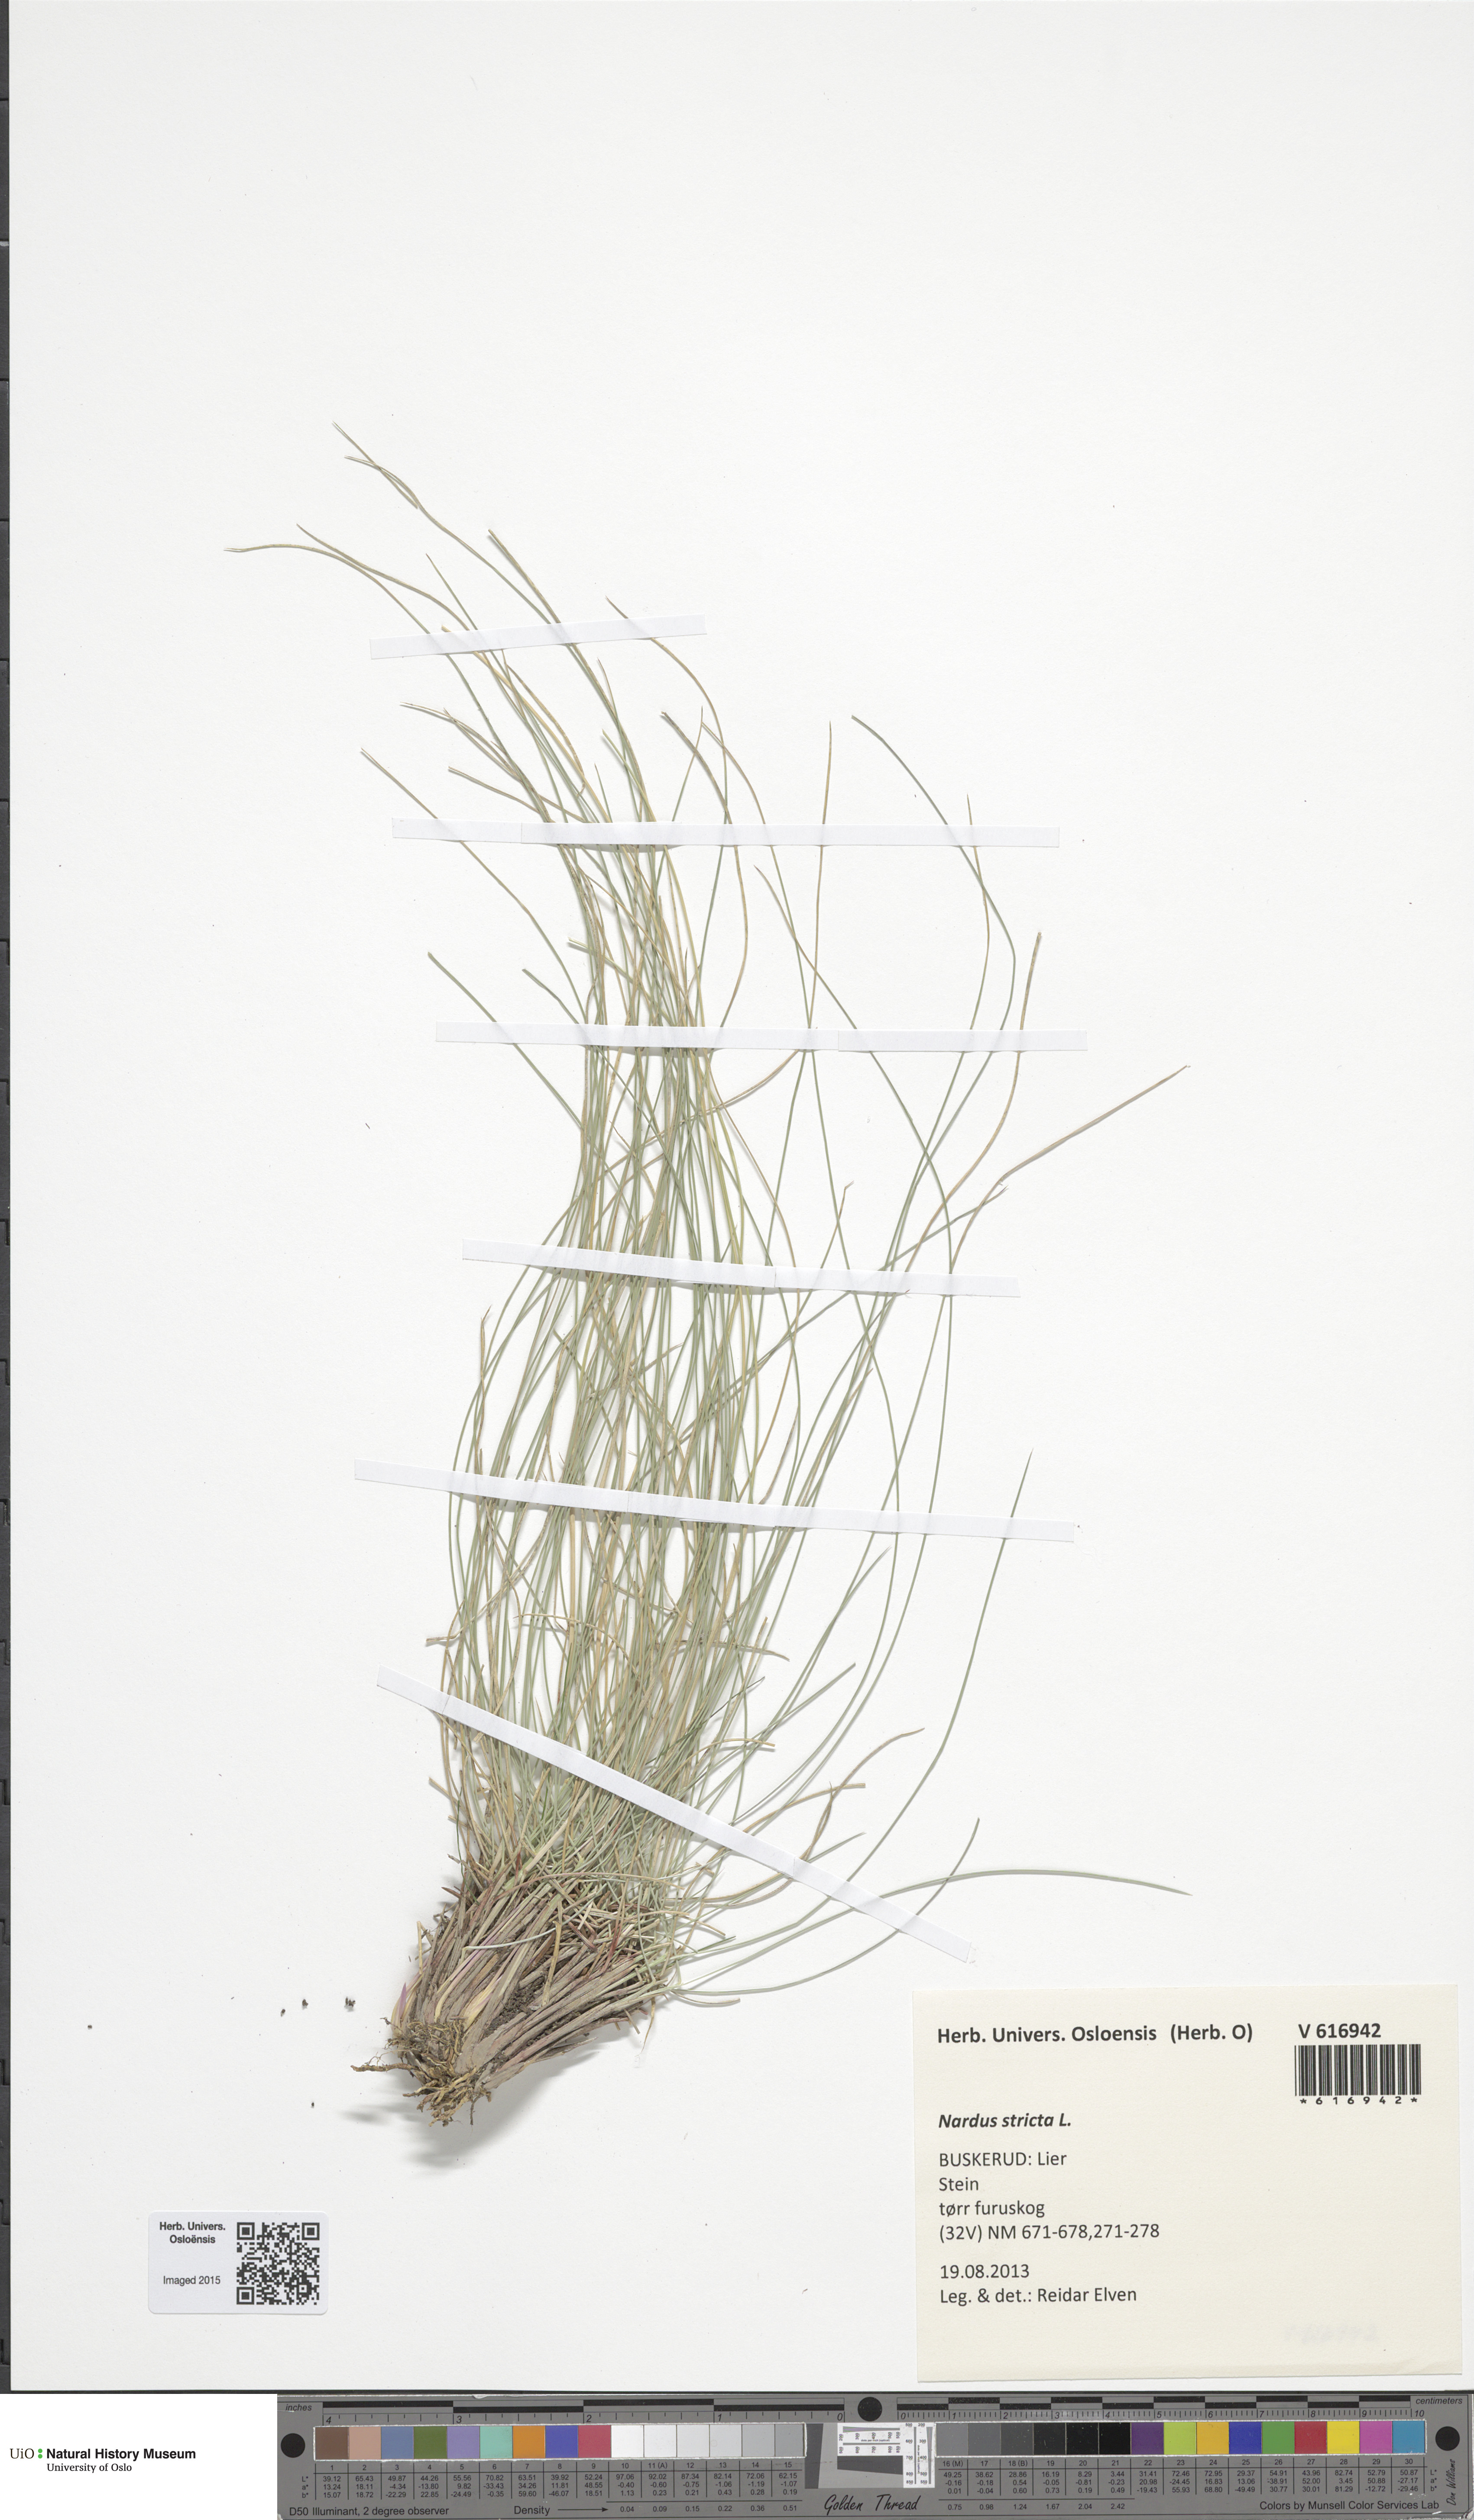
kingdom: Plantae
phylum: Tracheophyta
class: Liliopsida
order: Poales
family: Poaceae
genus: Nardus
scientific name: Nardus stricta
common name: Mat-grass
